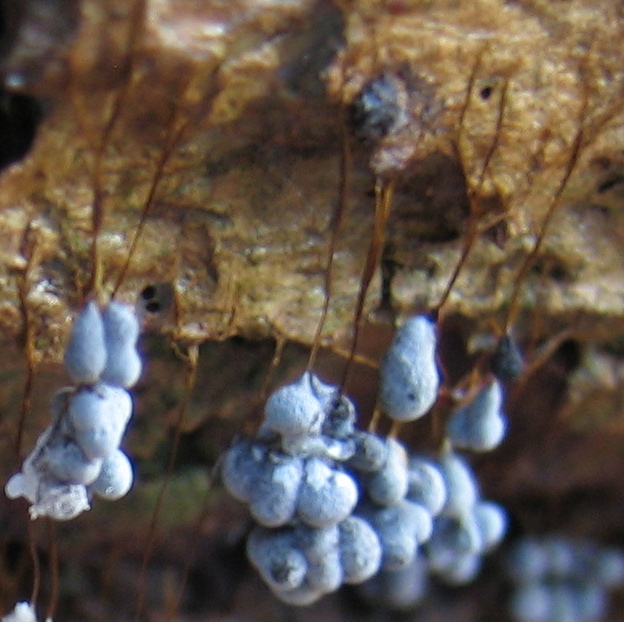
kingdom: Protozoa
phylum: Mycetozoa
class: Myxomycetes
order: Physarales
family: Physaraceae
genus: Badhamia
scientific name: Badhamia utricularis
